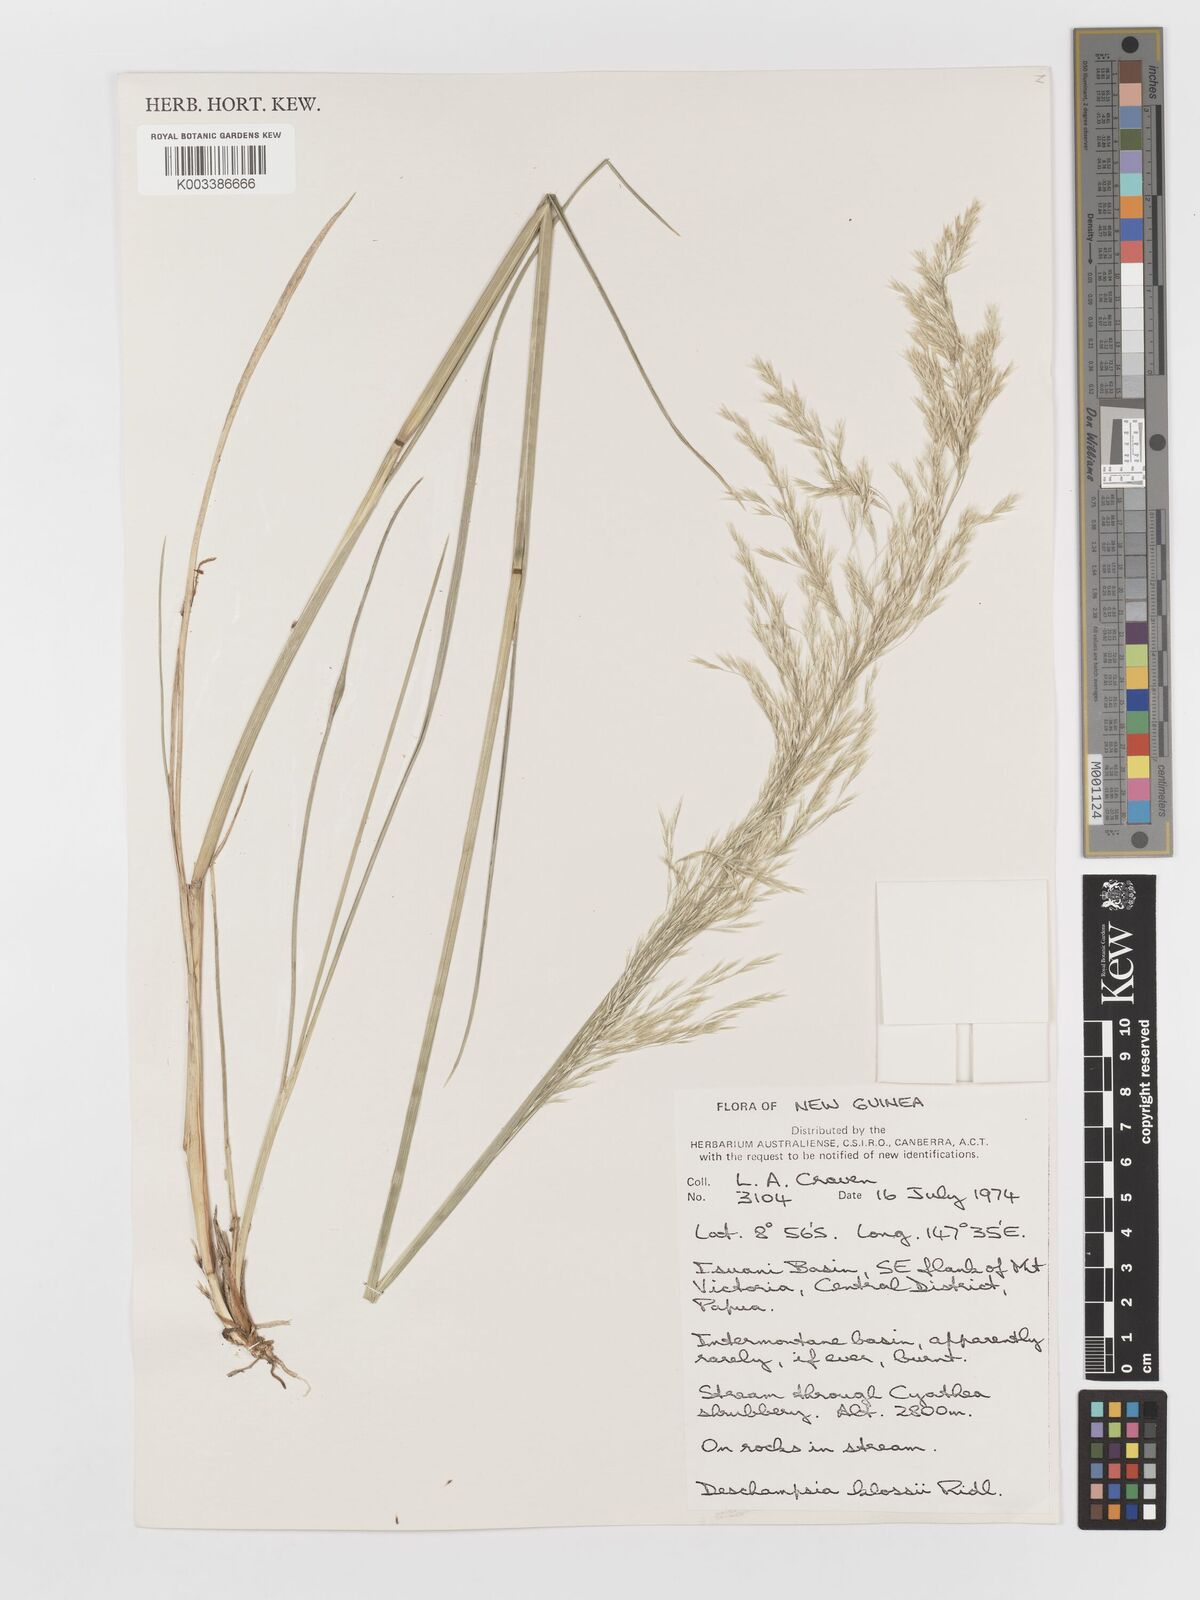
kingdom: Plantae
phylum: Tracheophyta
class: Liliopsida
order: Poales
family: Poaceae
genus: Deschampsia
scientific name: Deschampsia klossii
